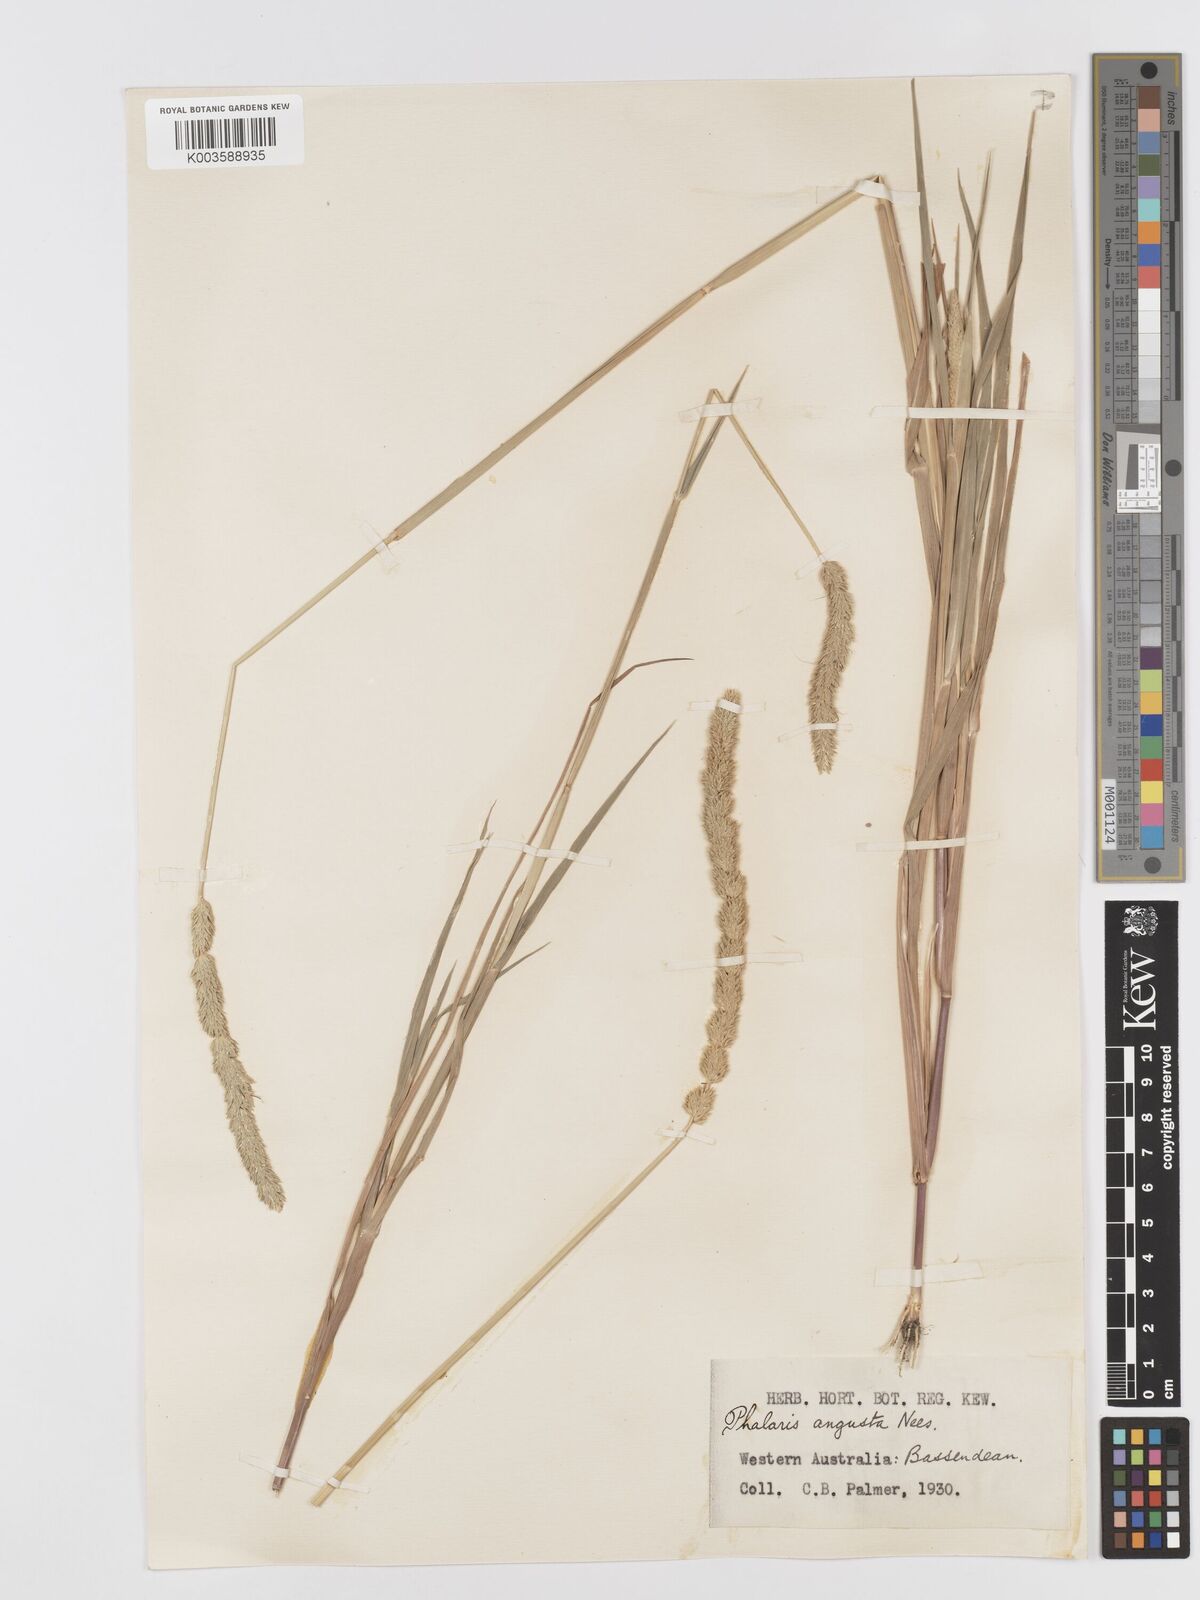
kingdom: Plantae
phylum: Tracheophyta
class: Liliopsida
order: Poales
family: Poaceae
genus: Phalaris
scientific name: Phalaris
